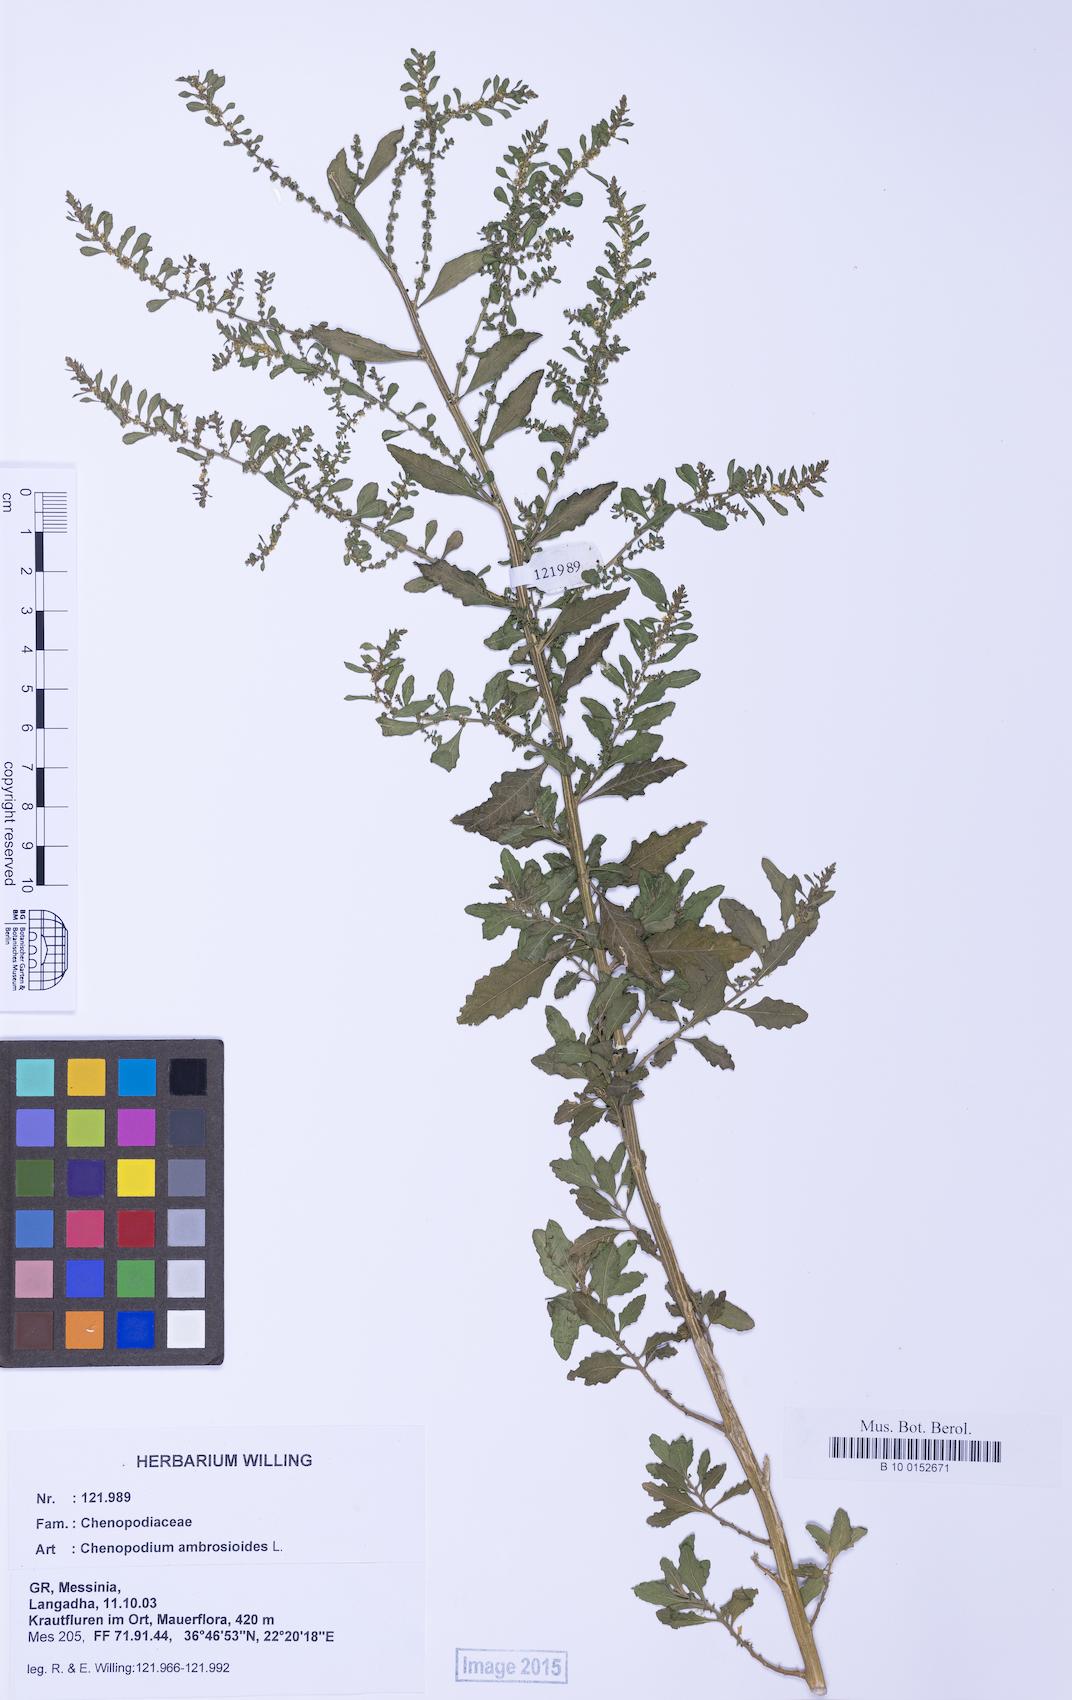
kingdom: Plantae
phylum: Tracheophyta
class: Magnoliopsida
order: Caryophyllales
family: Amaranthaceae
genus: Dysphania
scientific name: Dysphania ambrosioides
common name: Wormseed
